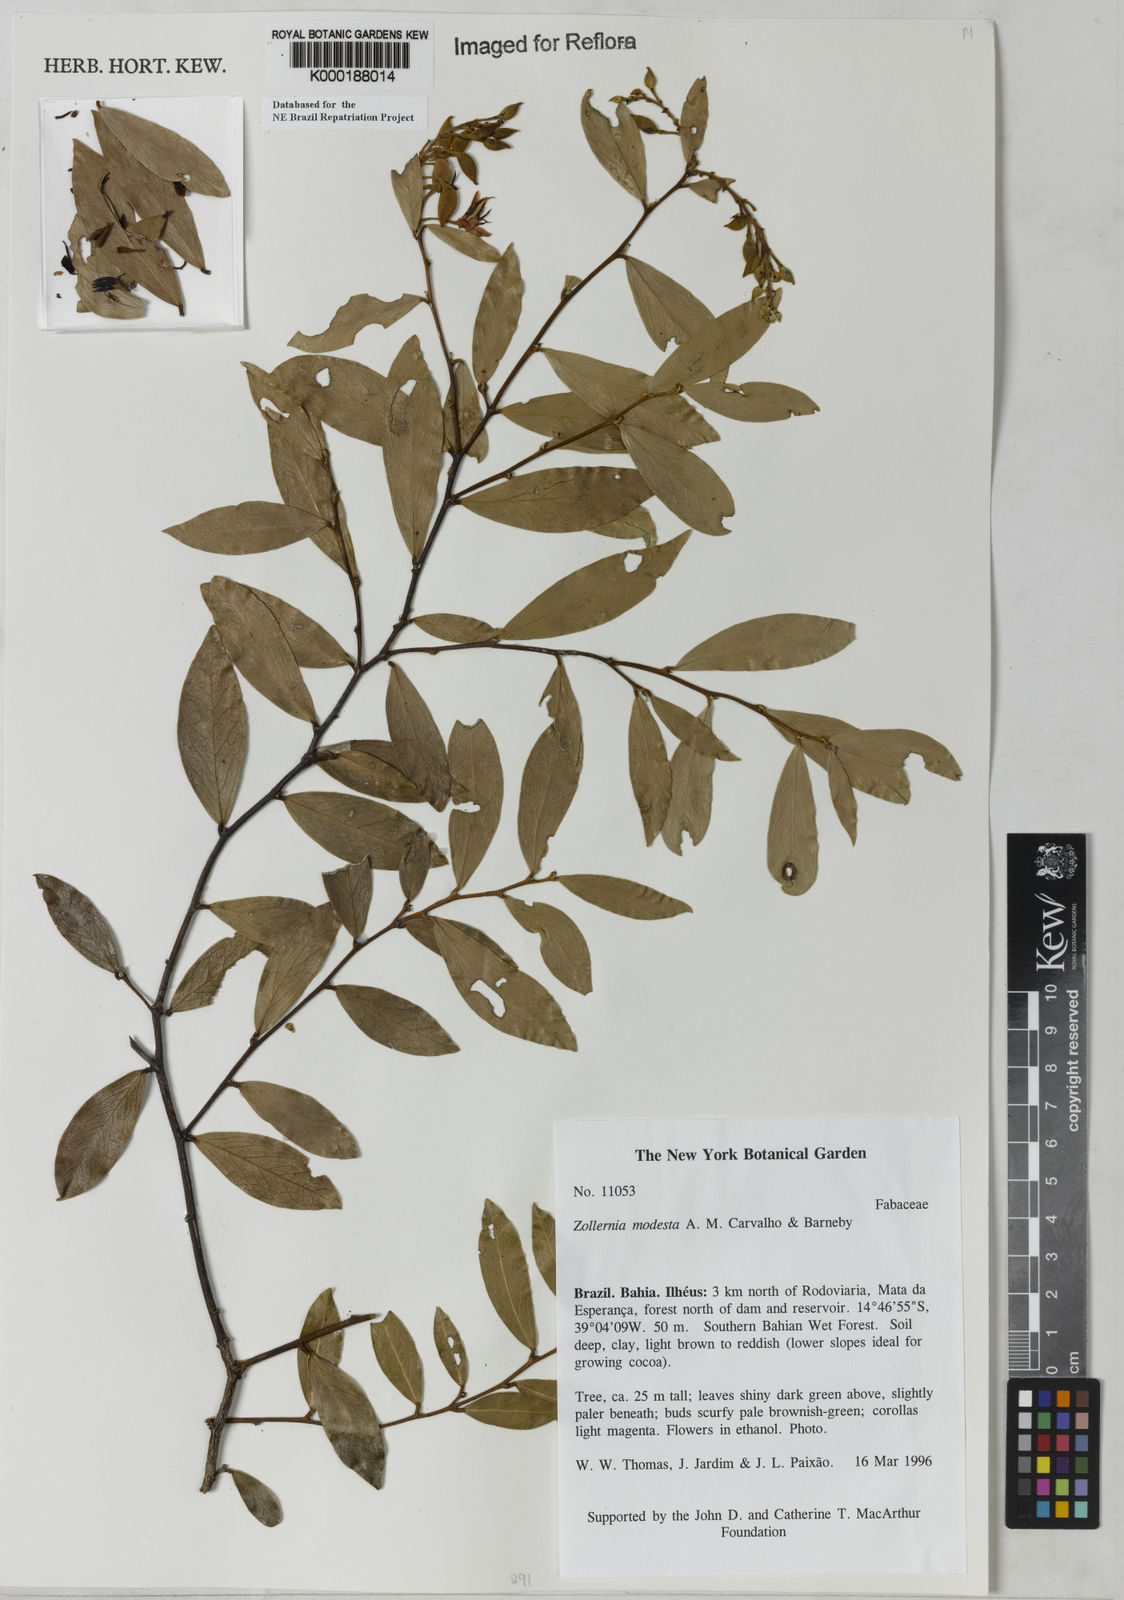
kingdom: Plantae
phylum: Tracheophyta
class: Magnoliopsida
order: Fabales
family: Fabaceae
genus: Zollernia
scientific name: Zollernia modesta
